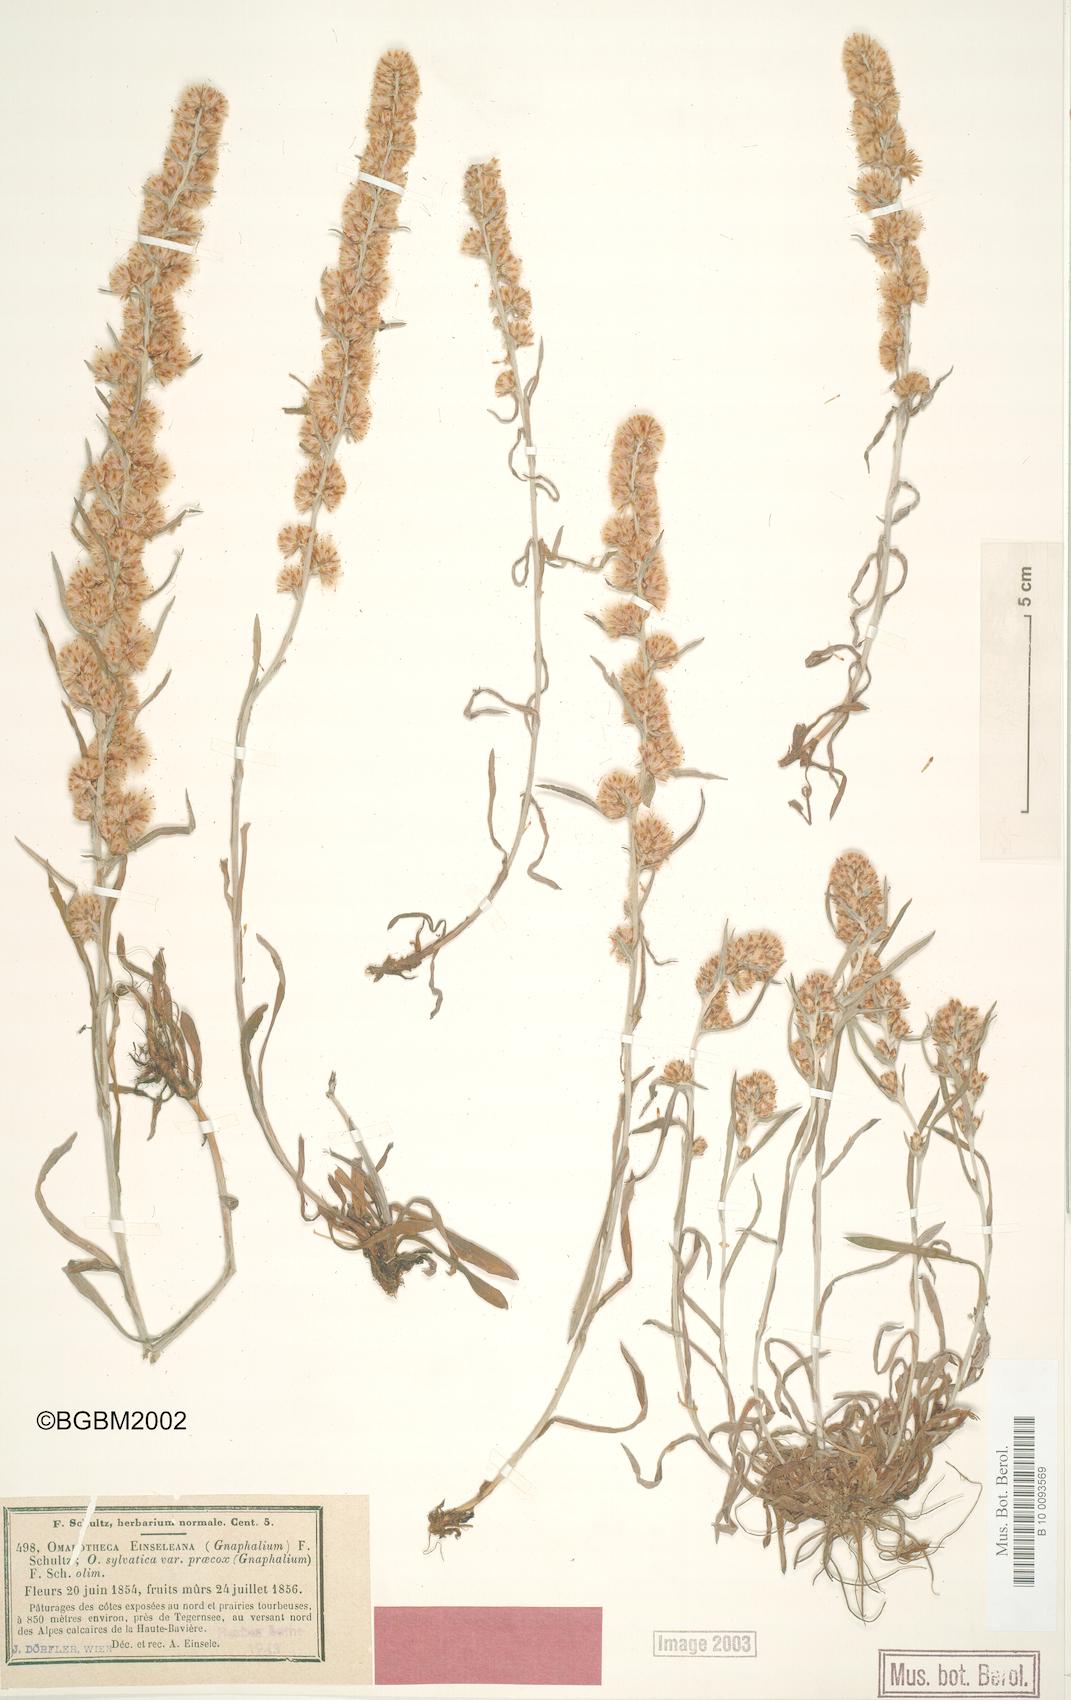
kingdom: Plantae
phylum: Tracheophyta
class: Magnoliopsida
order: Asterales
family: Asteraceae
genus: Omalotheca
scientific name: Omalotheca sylvatica
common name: Heath cudweed
